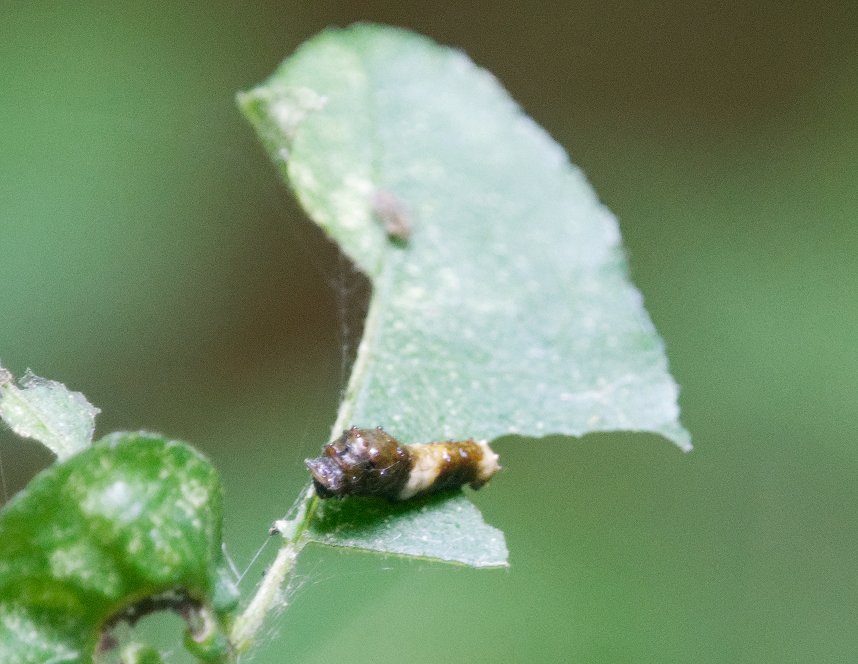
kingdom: Animalia
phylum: Arthropoda
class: Insecta
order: Lepidoptera
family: Papilionidae
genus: Papilio
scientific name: Papilio cresphontes
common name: Eastern Giant Swallowtail
